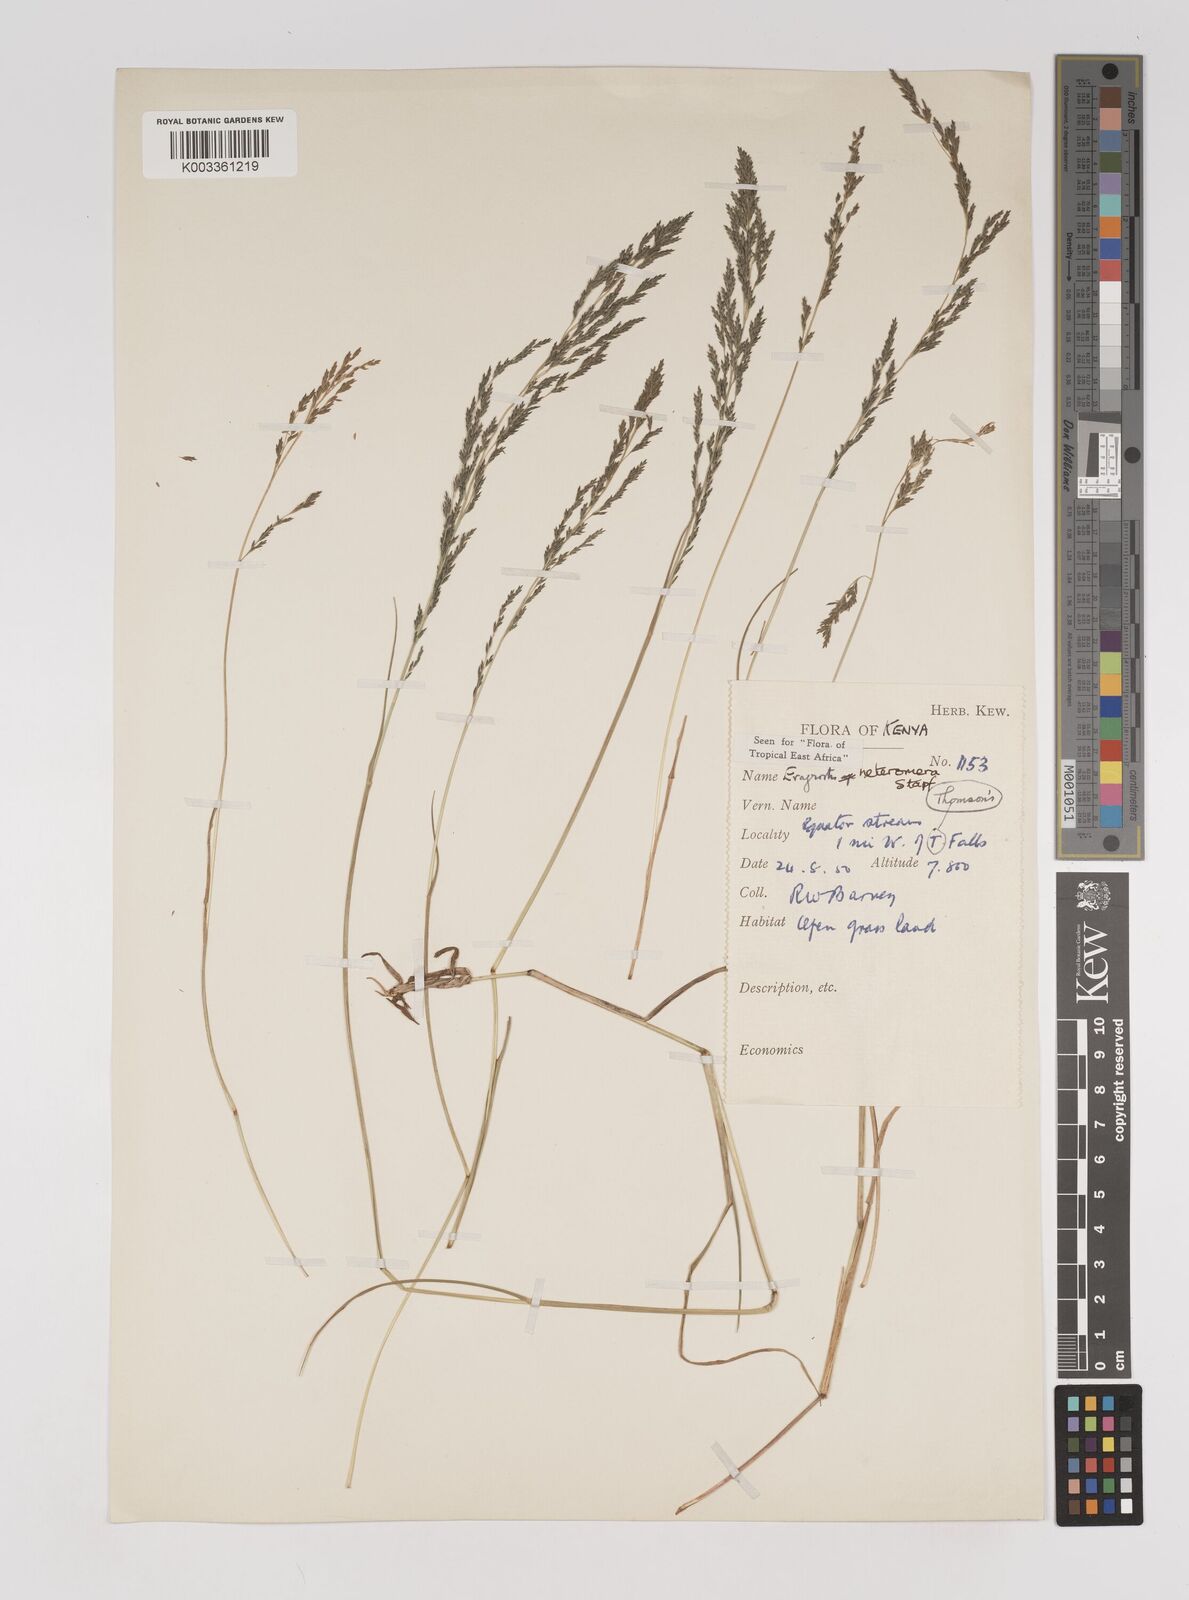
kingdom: Plantae
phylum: Tracheophyta
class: Liliopsida
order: Poales
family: Poaceae
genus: Eragrostis
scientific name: Eragrostis heteromera
